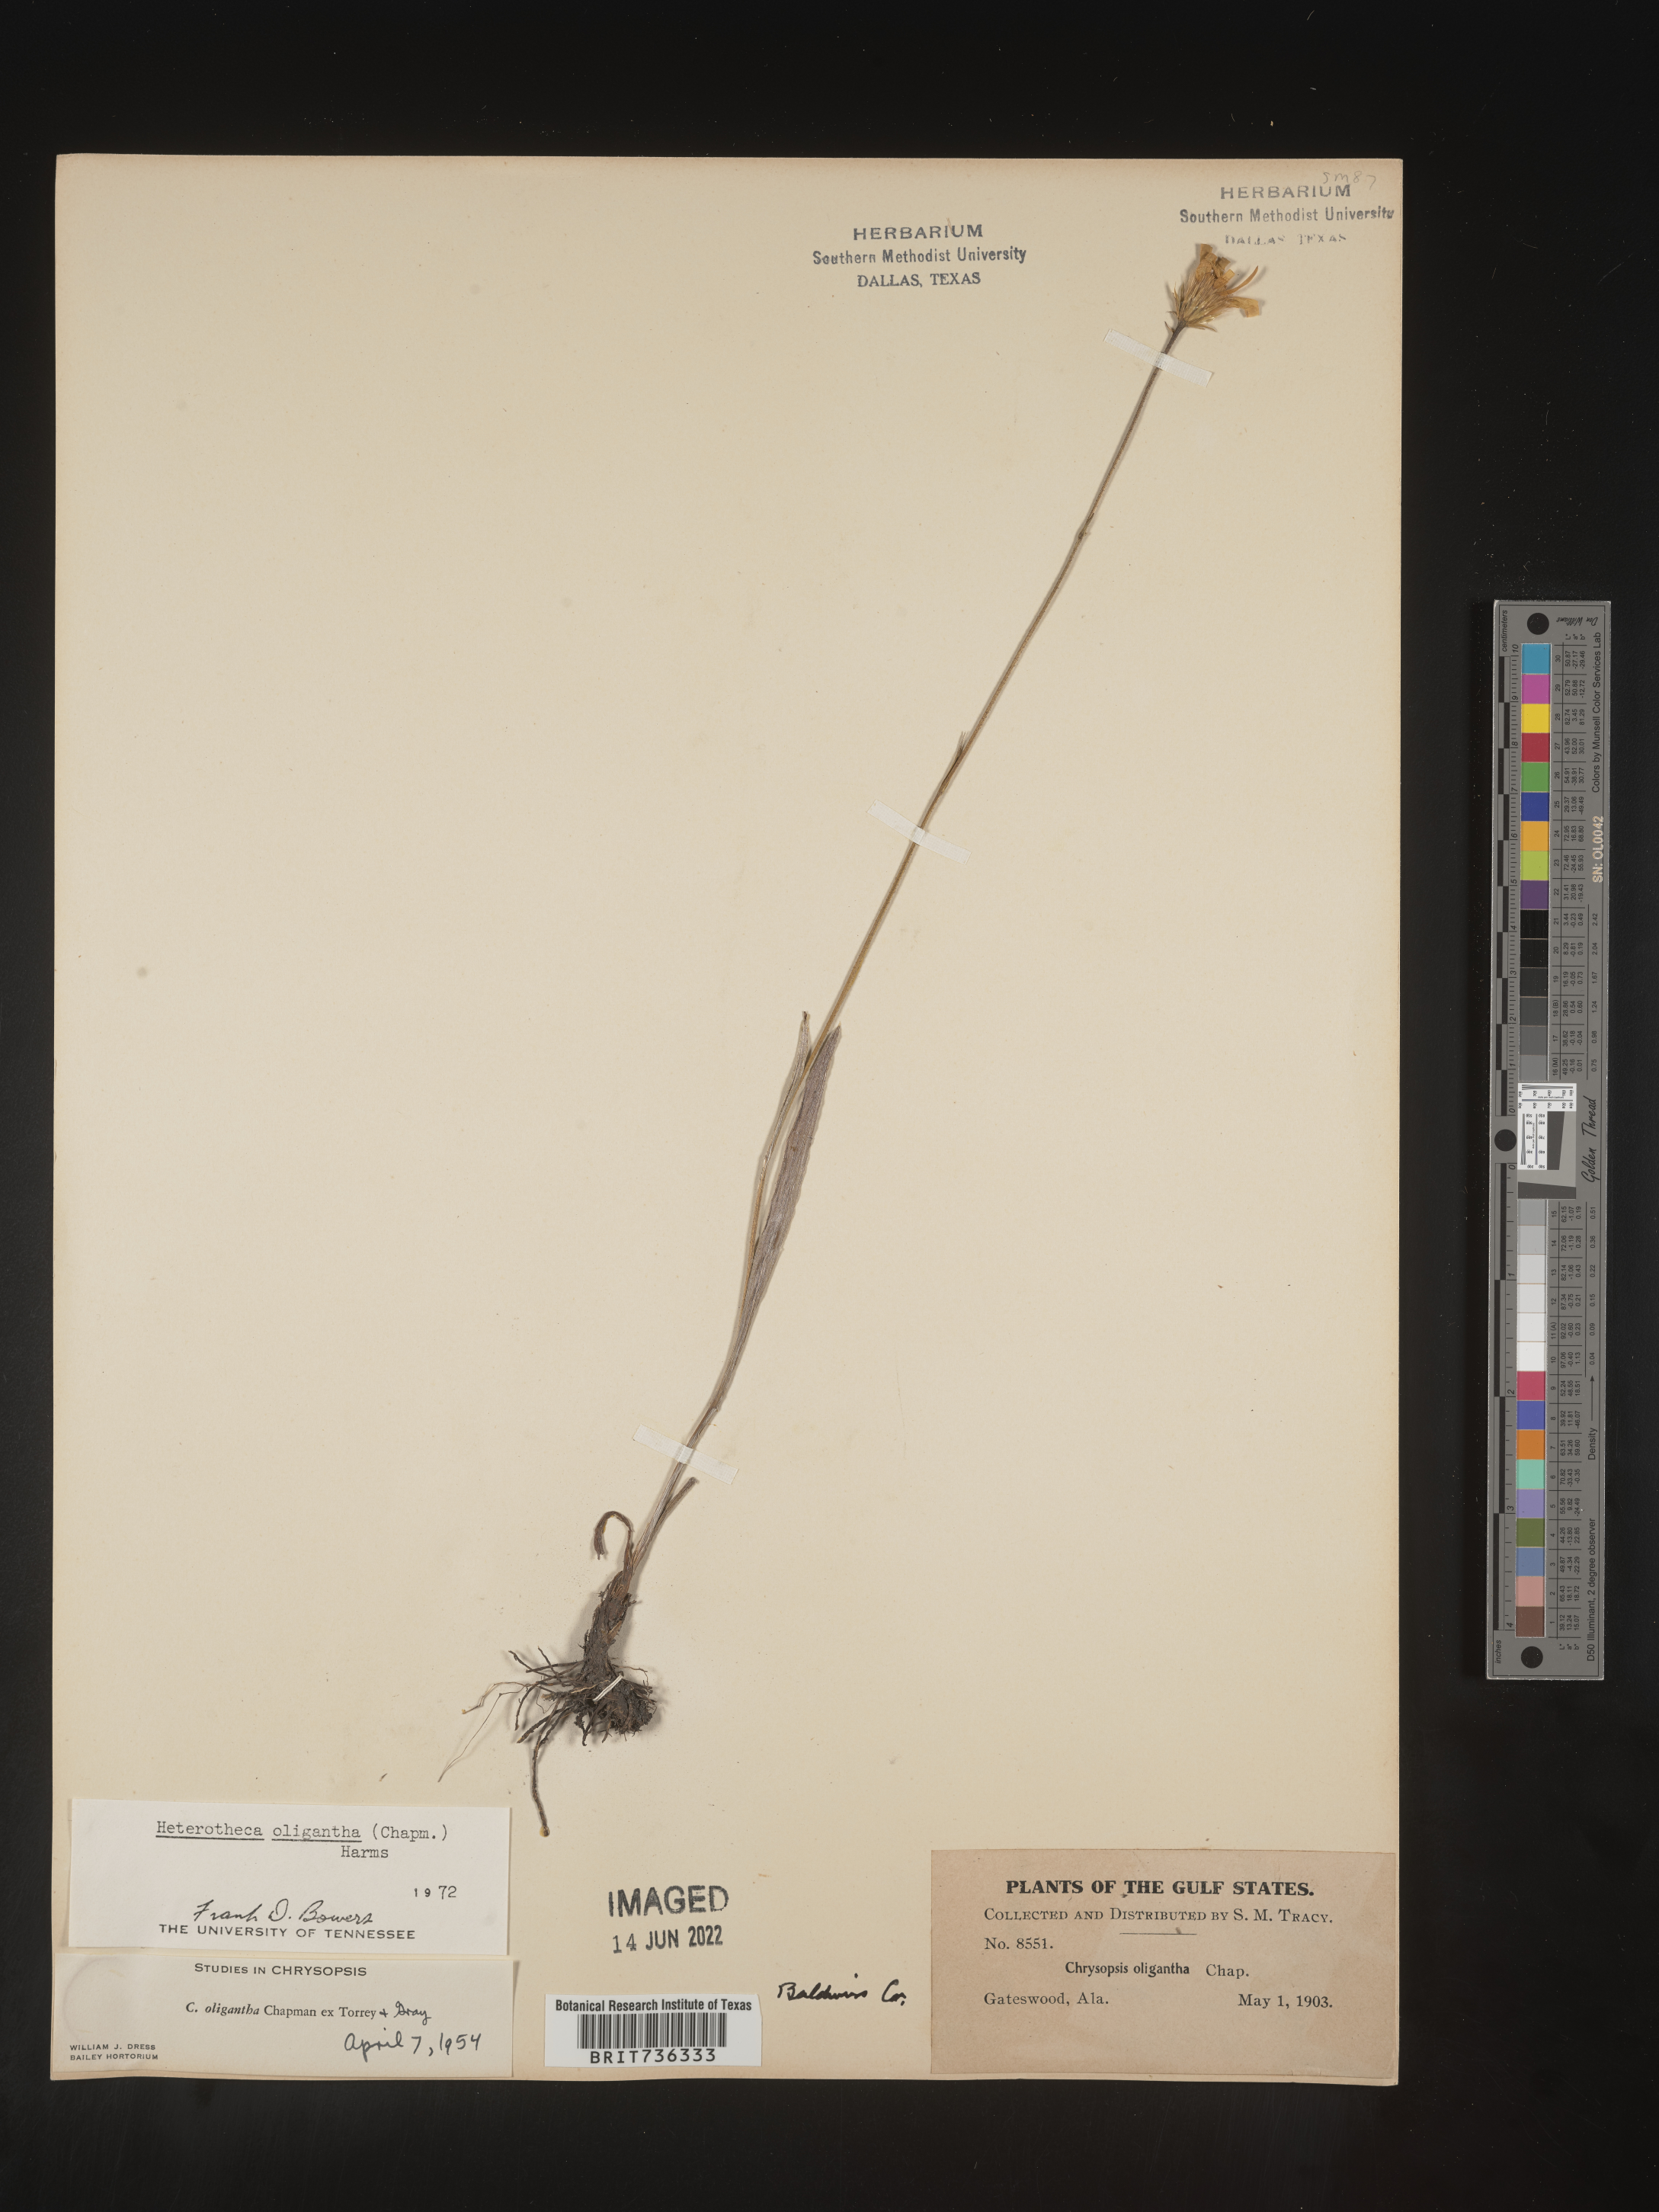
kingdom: Plantae
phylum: Tracheophyta
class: Magnoliopsida
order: Asterales
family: Asteraceae
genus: Pityopsis
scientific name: Pityopsis oligantha
